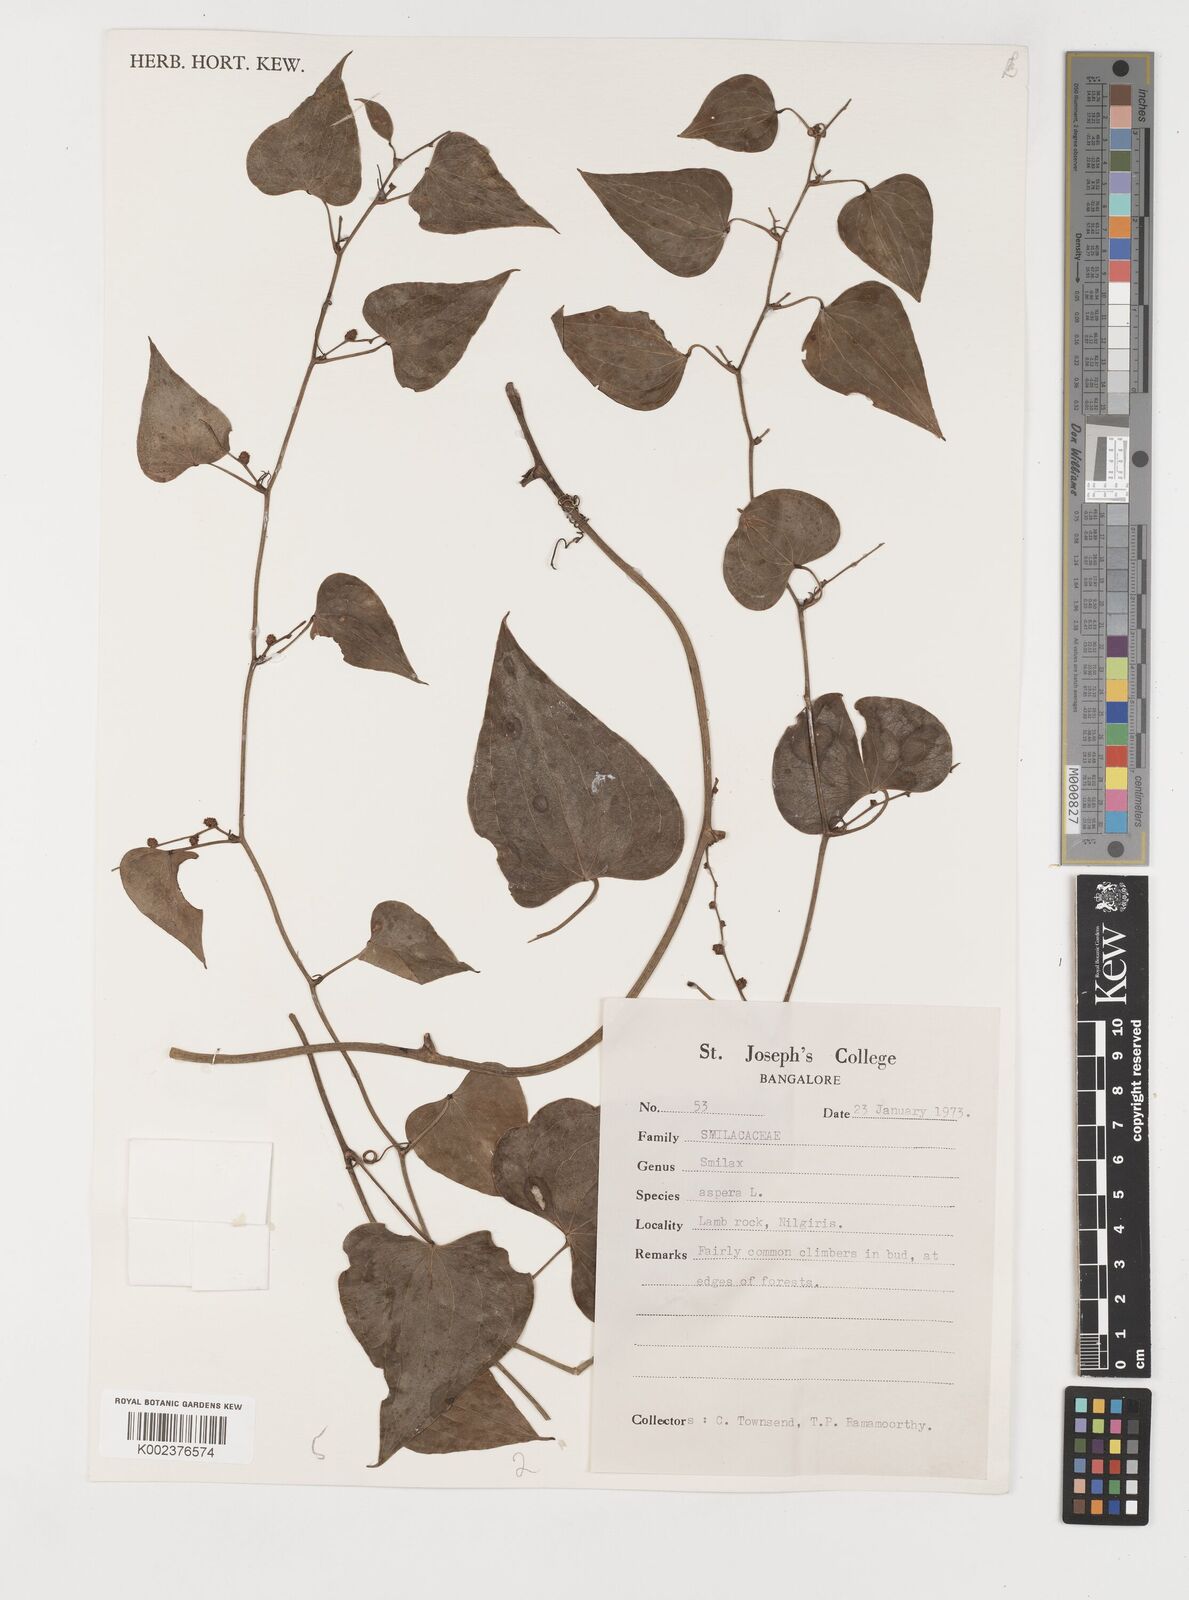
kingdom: Plantae
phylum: Tracheophyta
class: Liliopsida
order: Liliales
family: Smilacaceae
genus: Smilax
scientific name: Smilax aspera
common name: Common smilax
